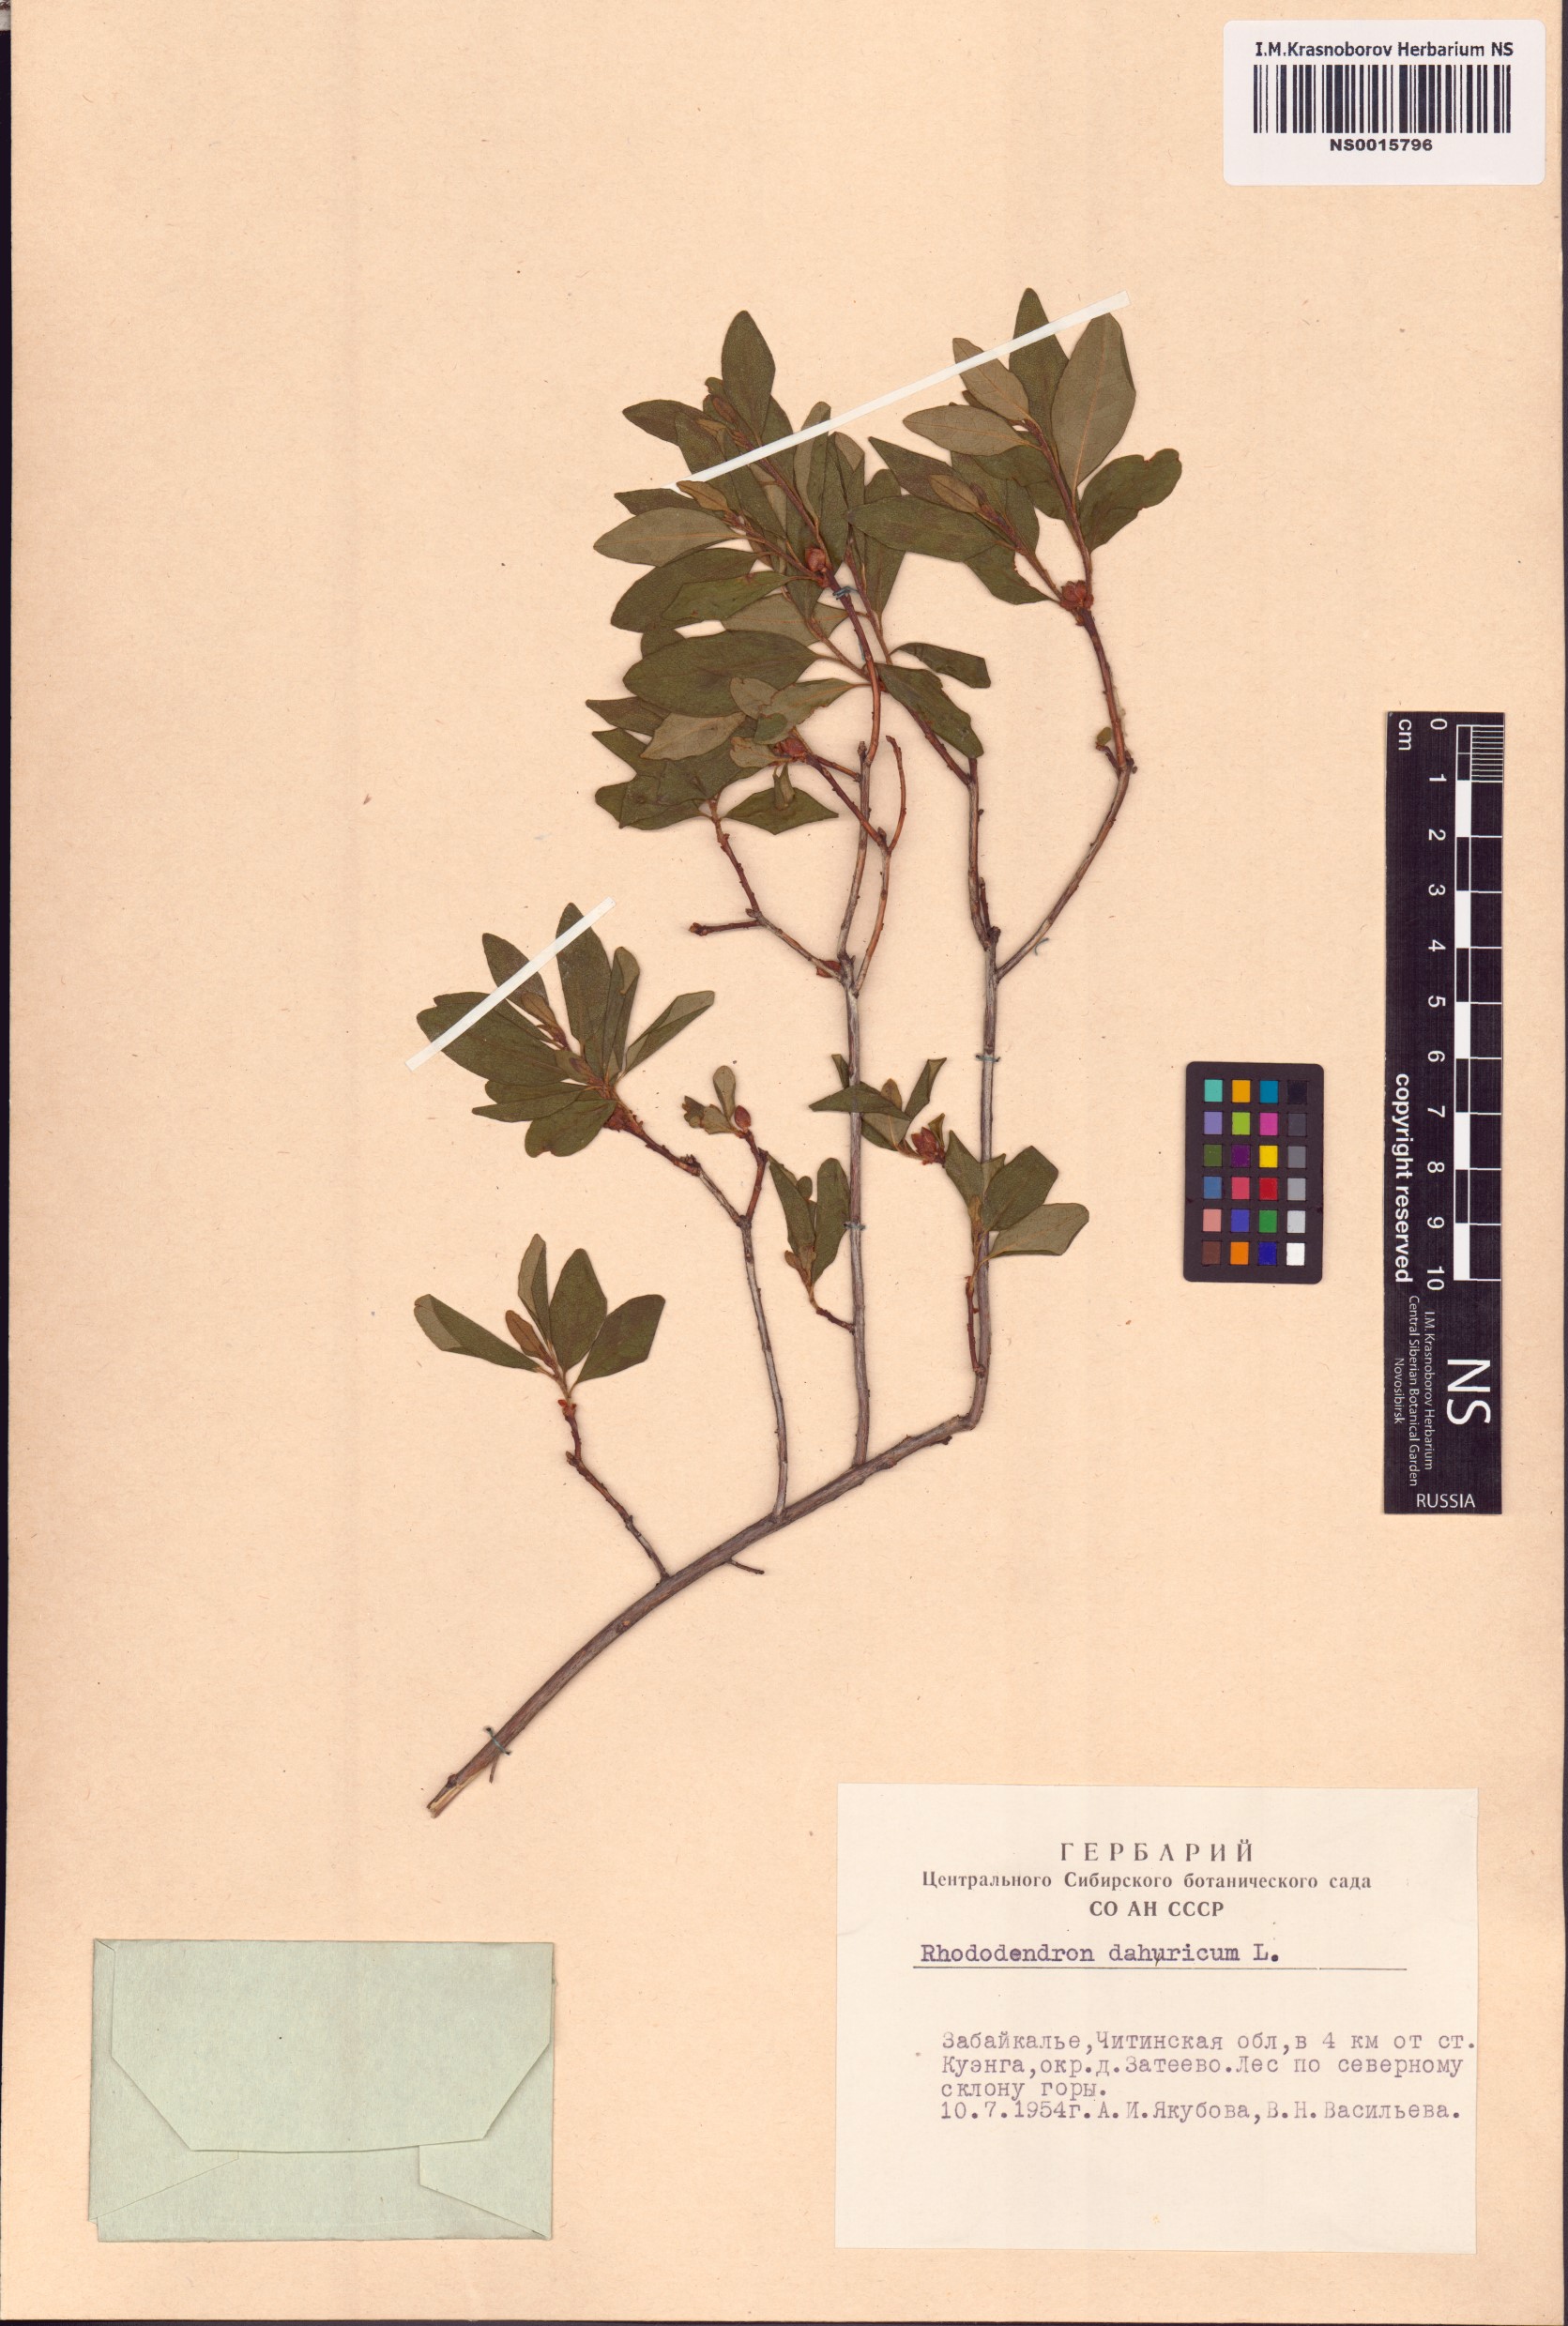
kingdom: Plantae
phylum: Tracheophyta
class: Magnoliopsida
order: Ericales
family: Ericaceae
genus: Rhododendron
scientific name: Rhododendron dauricum
